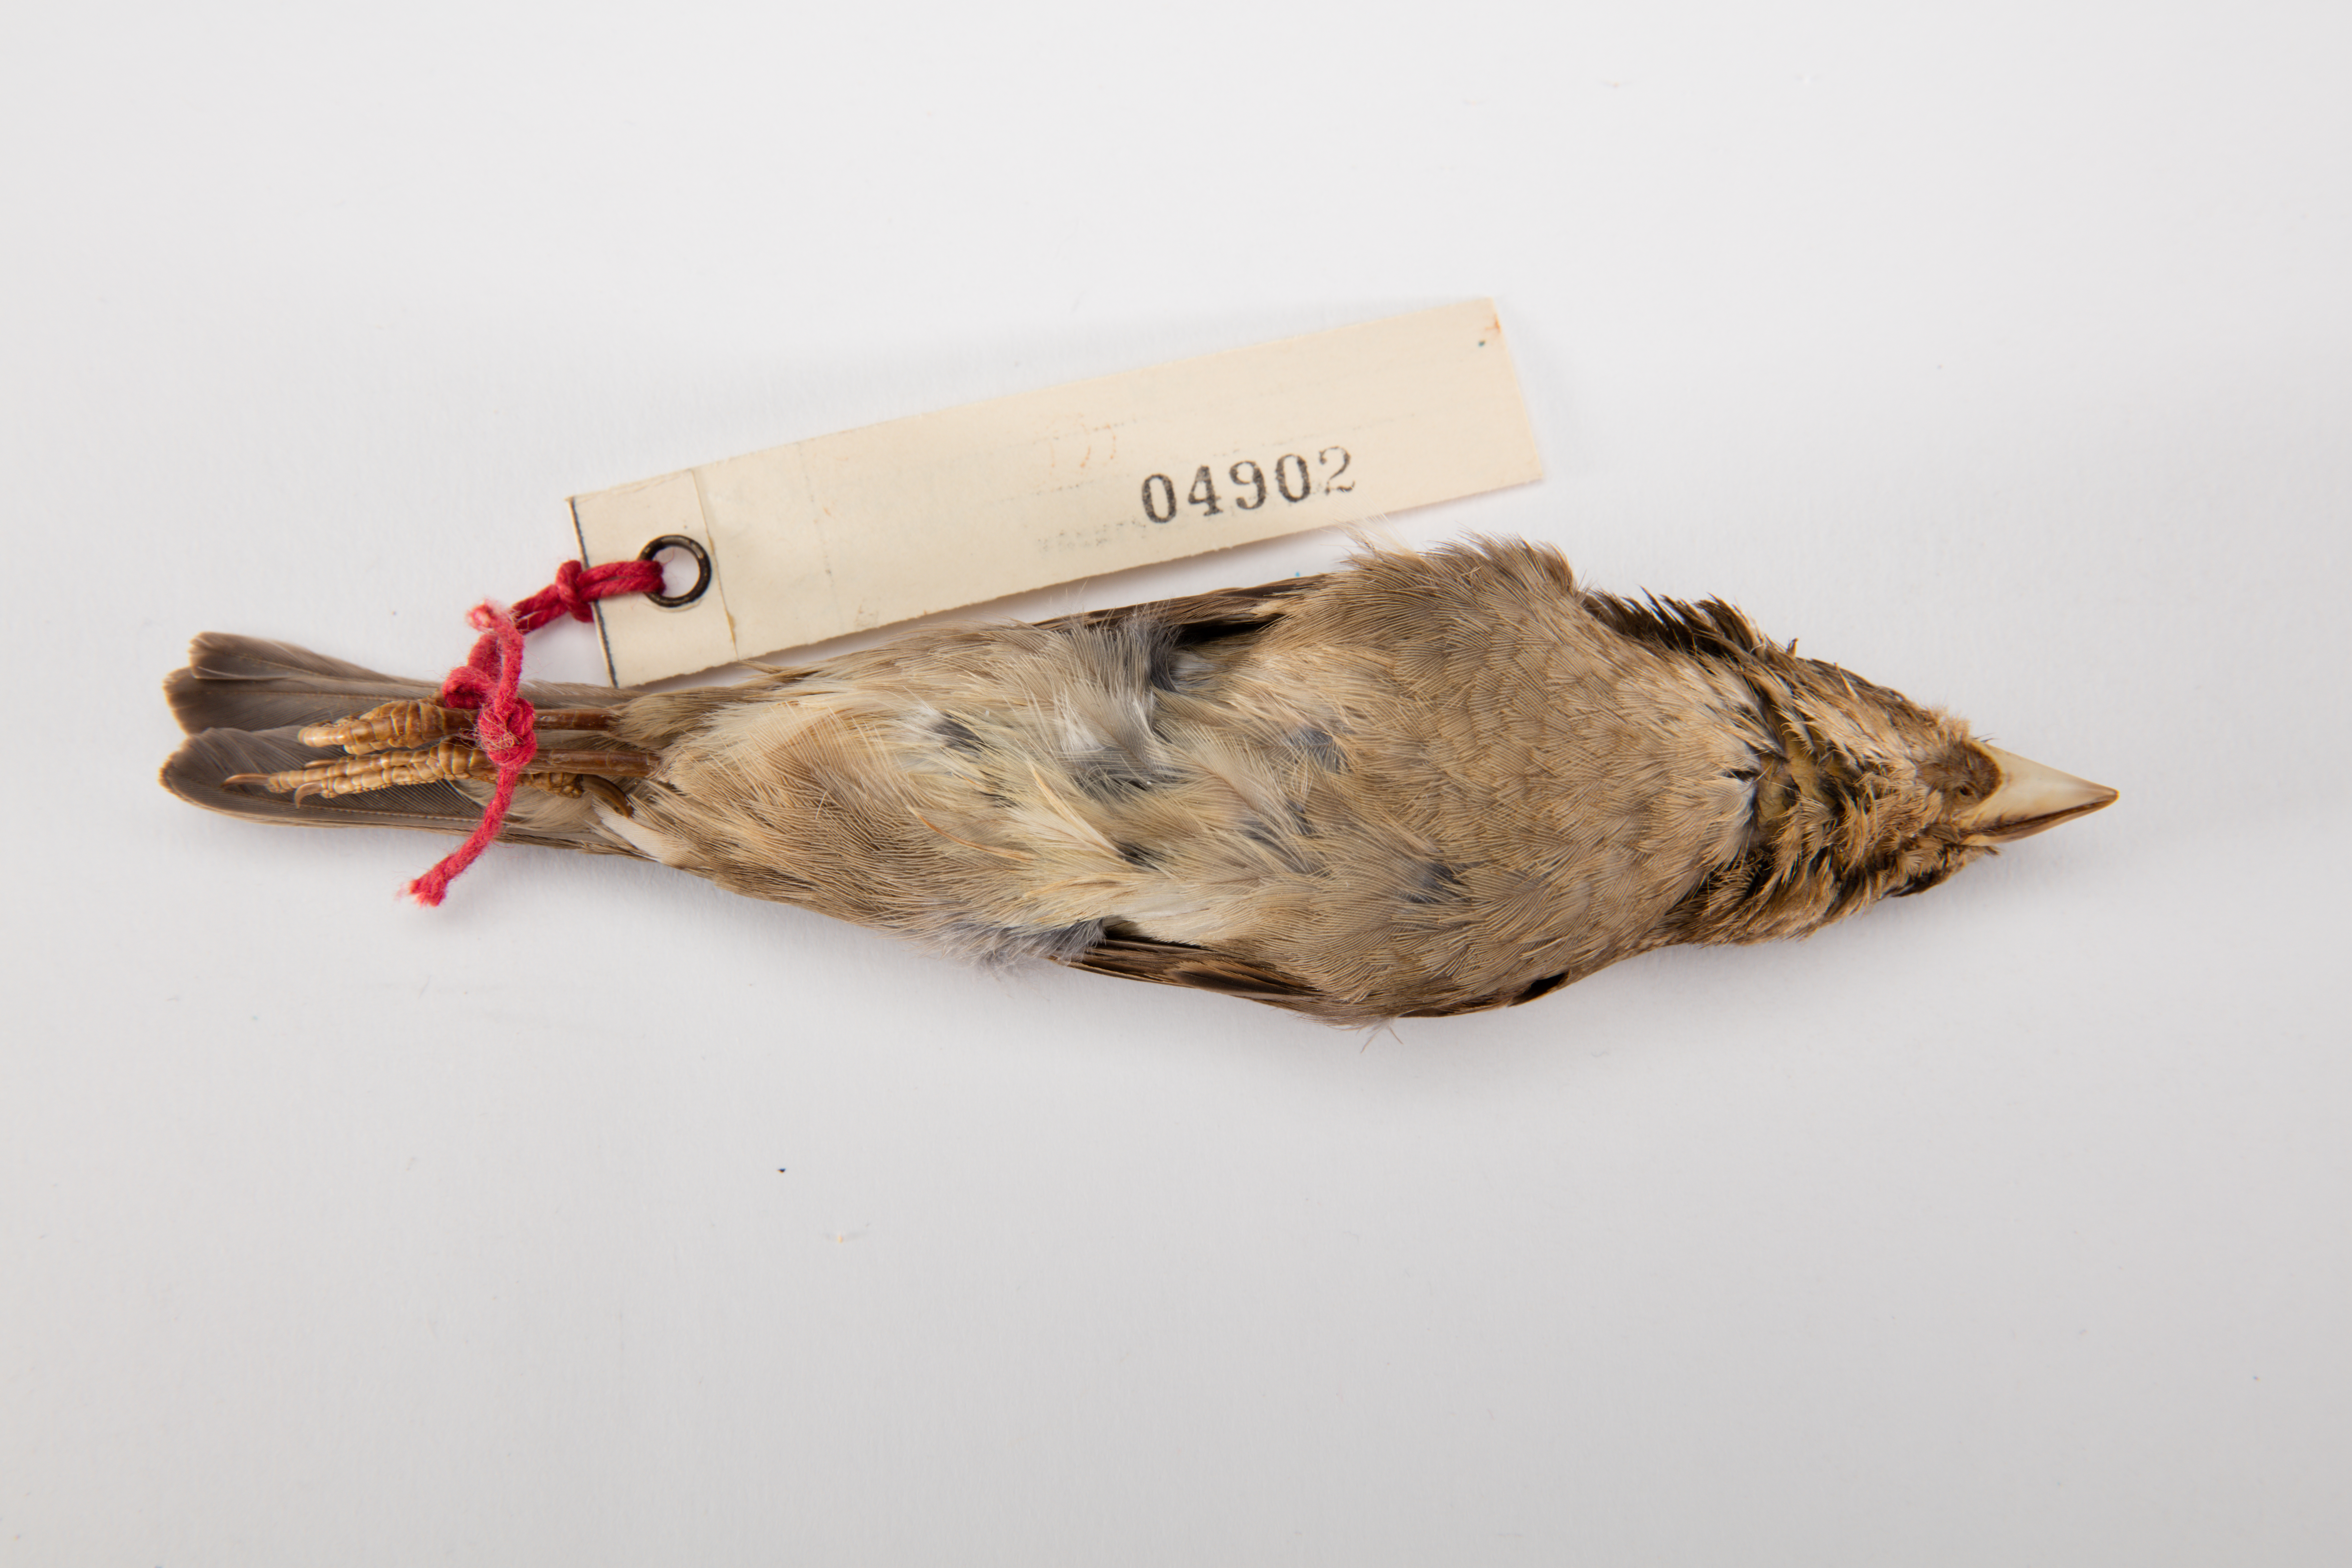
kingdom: Animalia
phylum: Chordata
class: Aves
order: Passeriformes
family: Passeridae
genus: Passer
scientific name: Passer domesticus
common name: House sparrow
